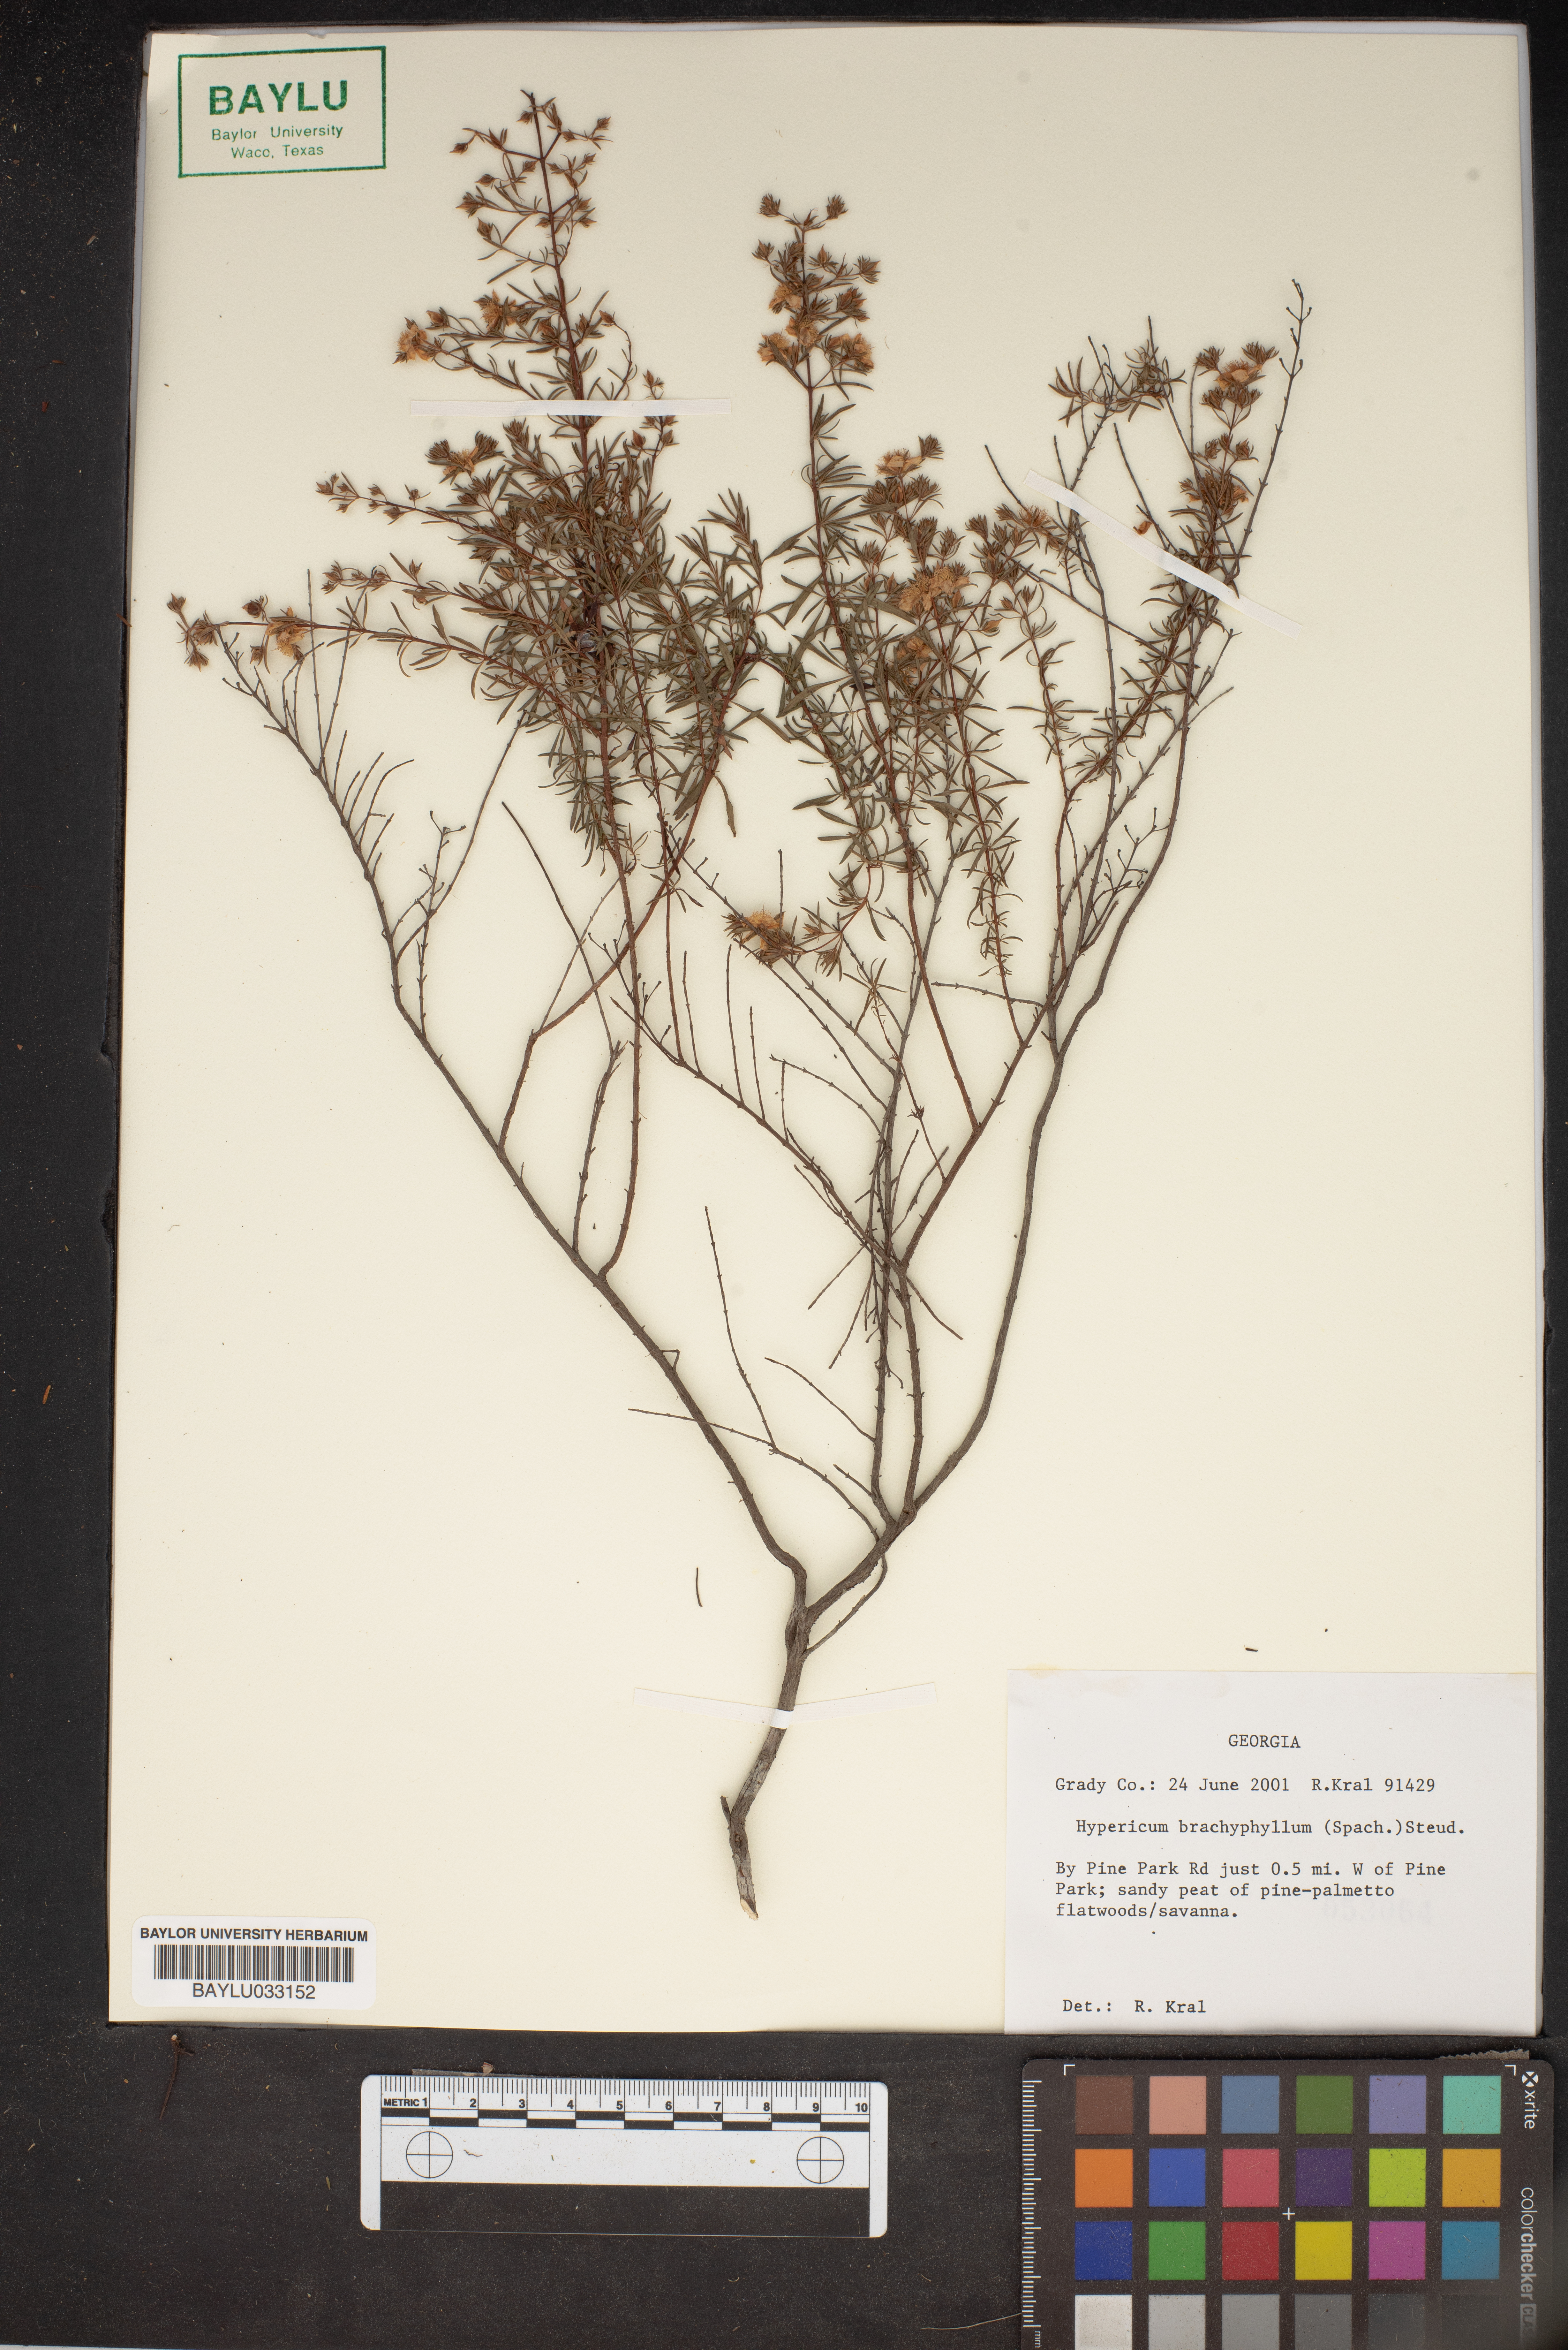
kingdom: Plantae
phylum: Tracheophyta
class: Magnoliopsida
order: Malpighiales
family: Hypericaceae
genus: Hypericum
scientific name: Hypericum brachyphyllum
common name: Coastal plain st. john's-wort
